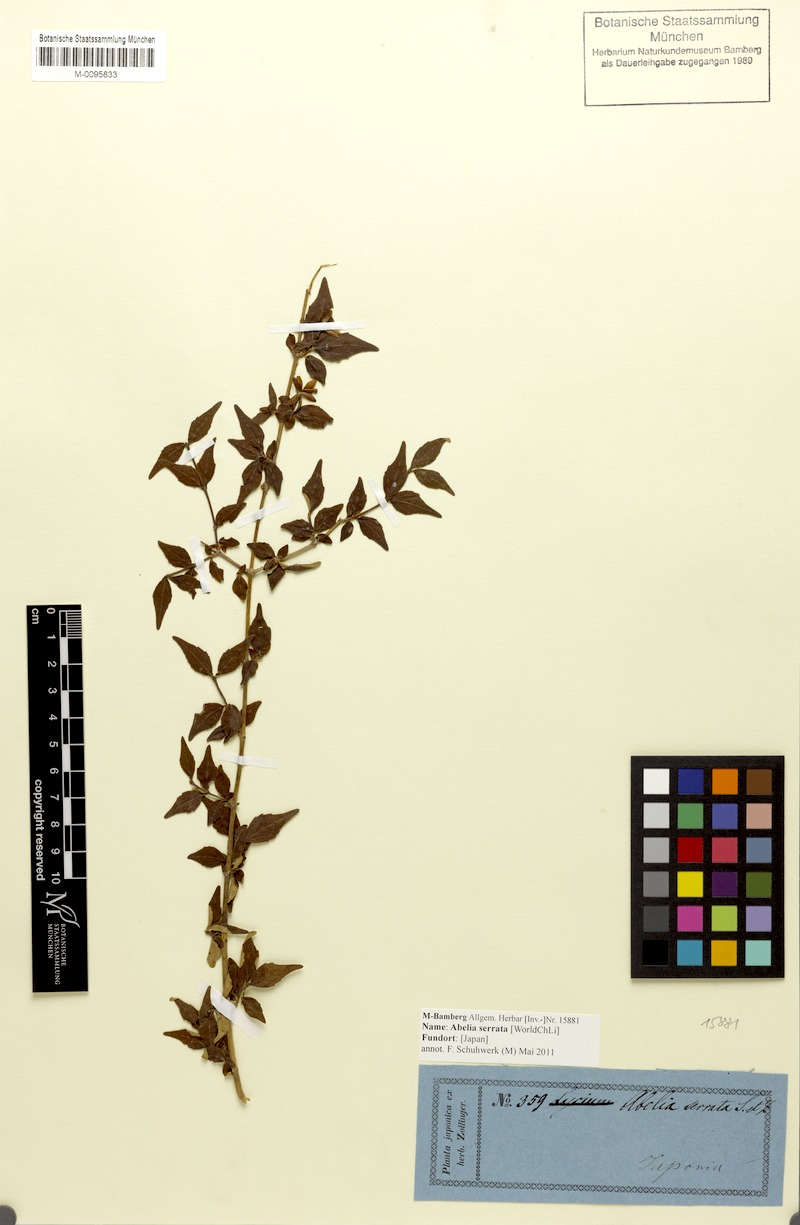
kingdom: Plantae
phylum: Tracheophyta
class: Magnoliopsida
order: Dipsacales
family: Caprifoliaceae
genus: Diabelia
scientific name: Diabelia serrata
